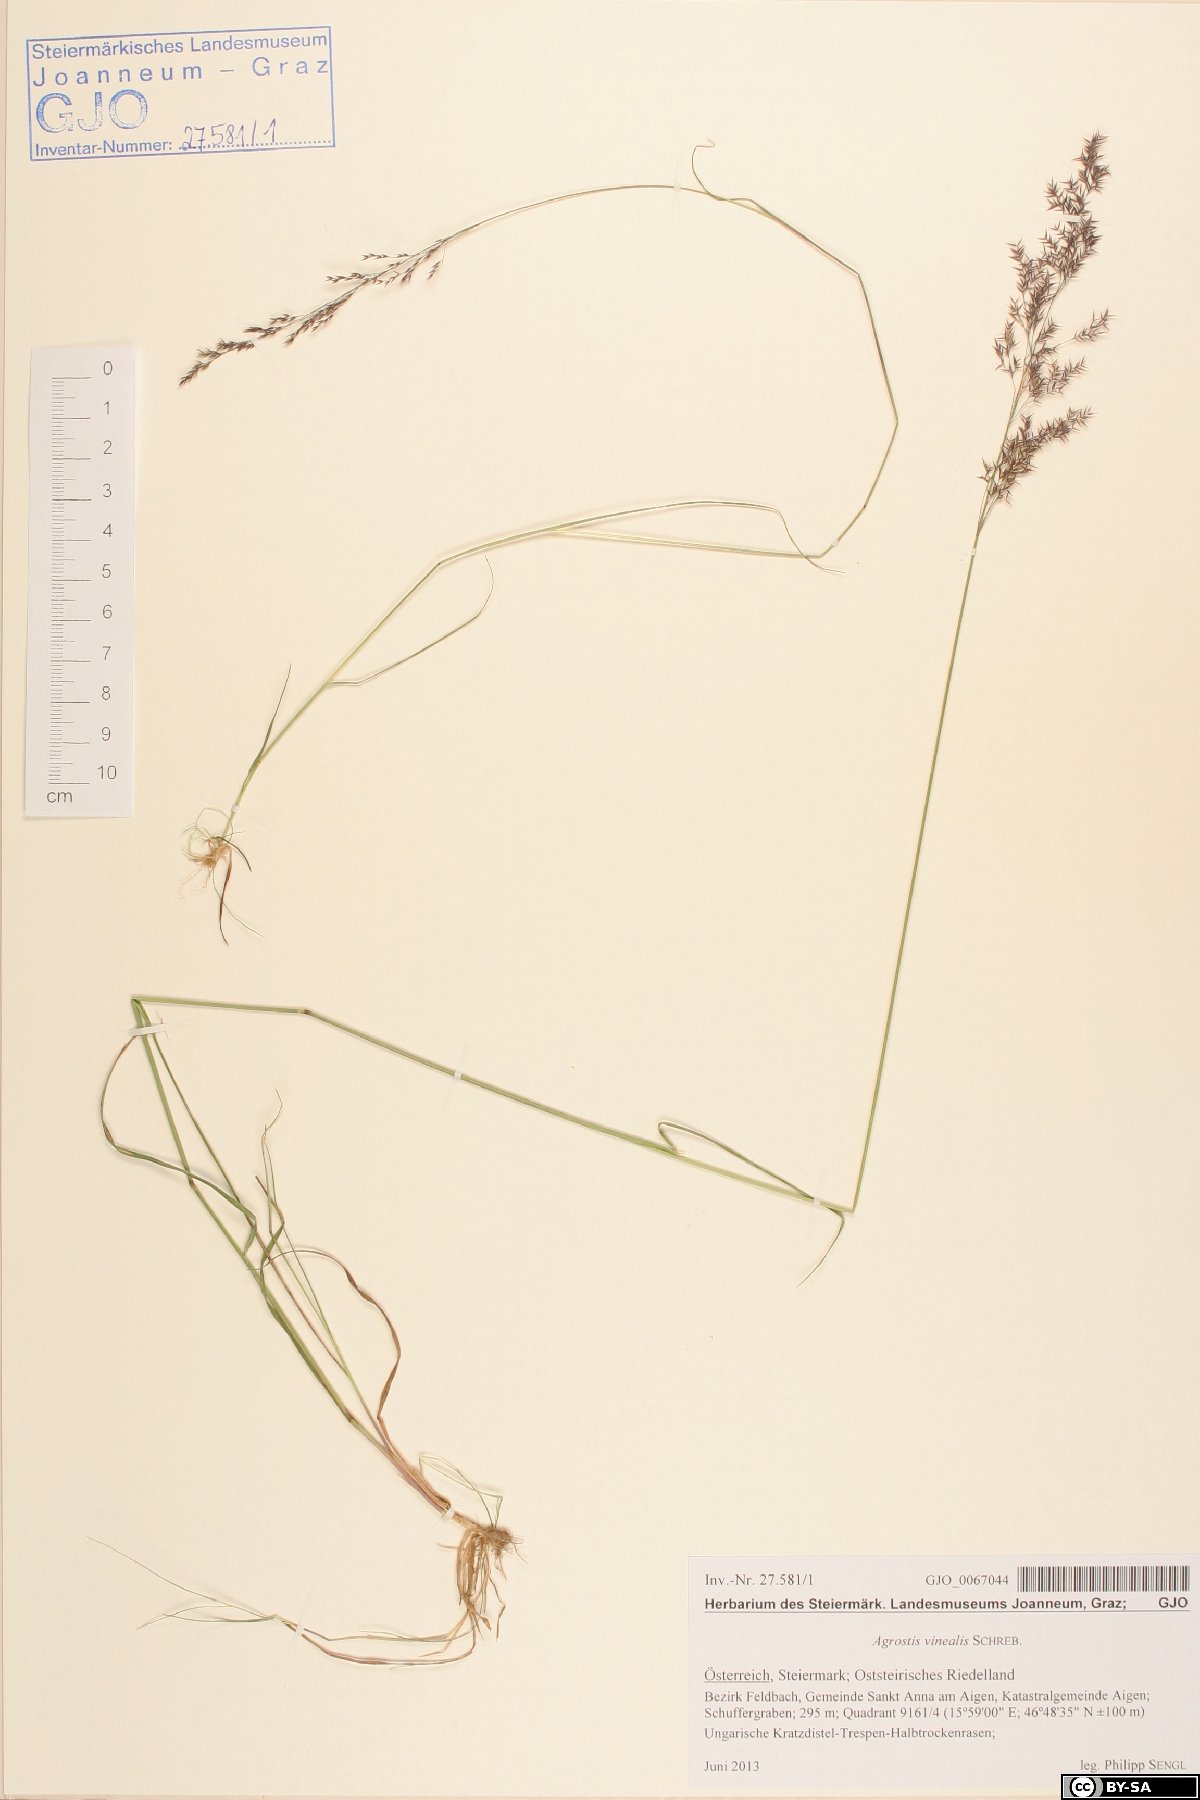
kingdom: Plantae
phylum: Tracheophyta
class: Liliopsida
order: Poales
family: Poaceae
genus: Agrostis
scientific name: Agrostis vinealis
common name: Brown bent
